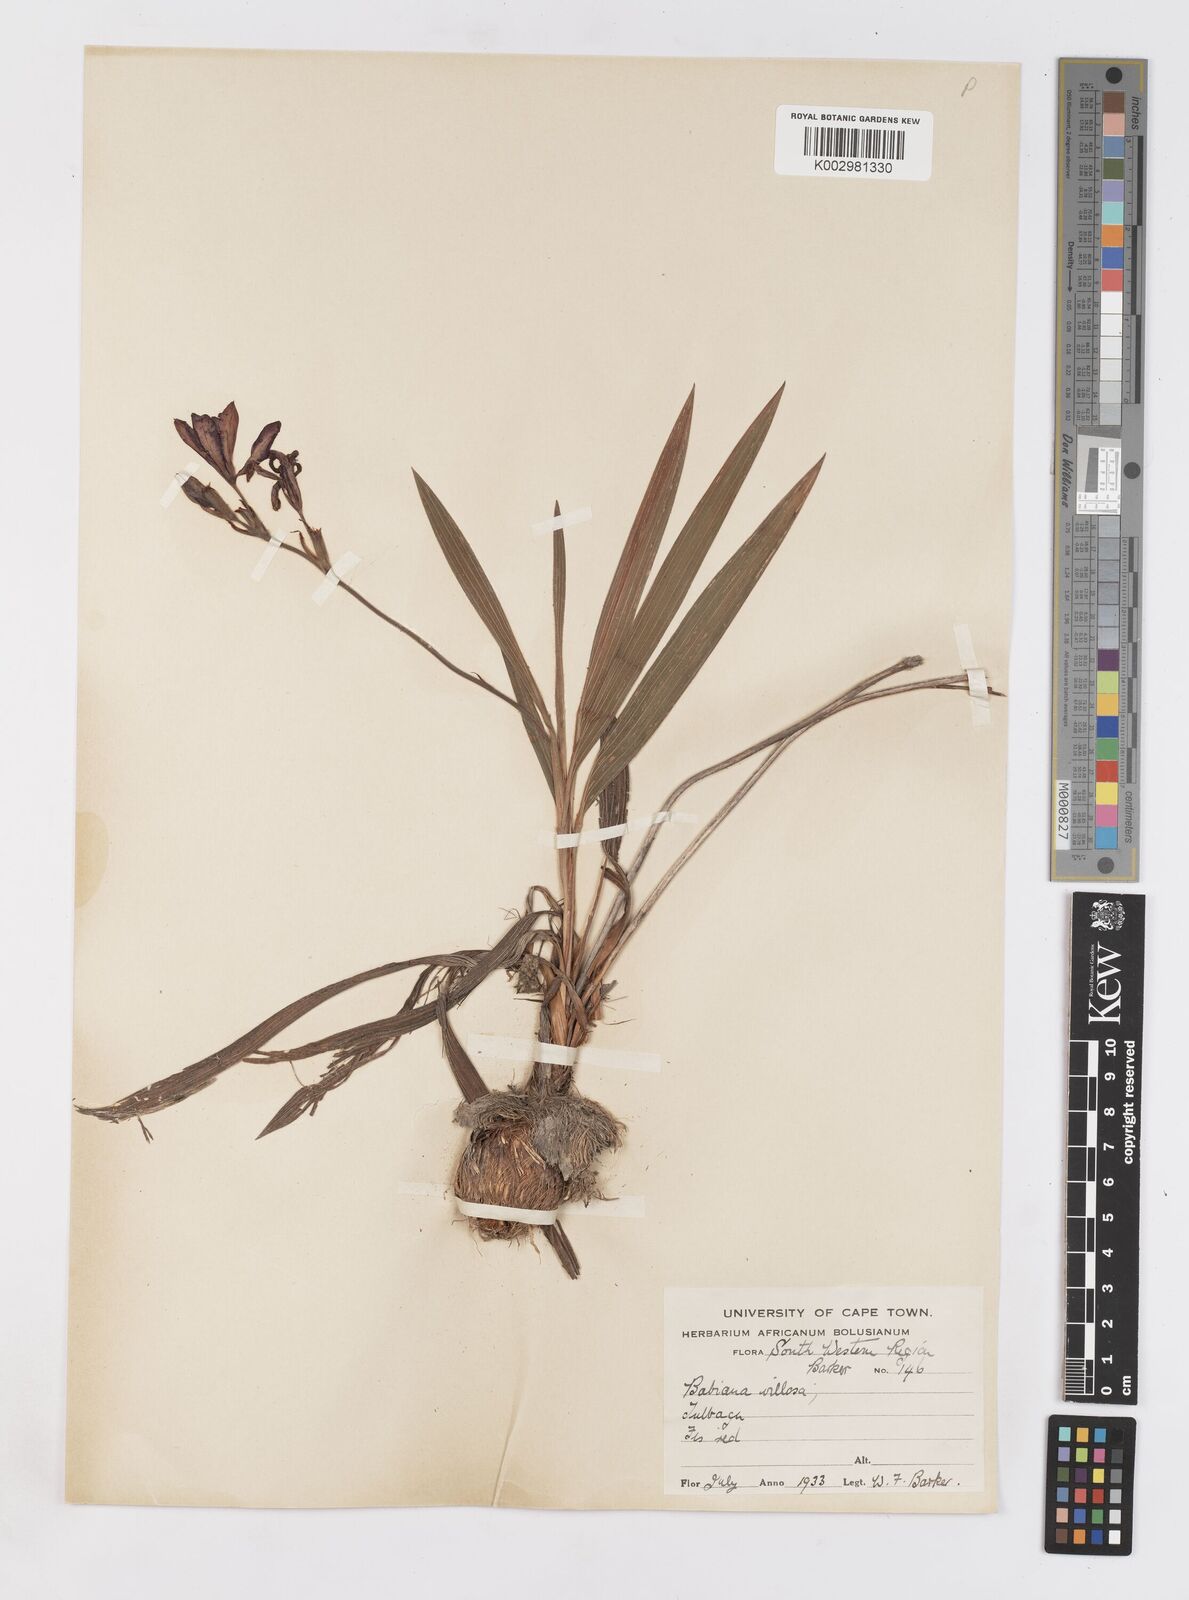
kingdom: Plantae
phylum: Tracheophyta
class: Liliopsida
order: Asparagales
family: Iridaceae
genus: Babiana
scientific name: Babiana villosa
